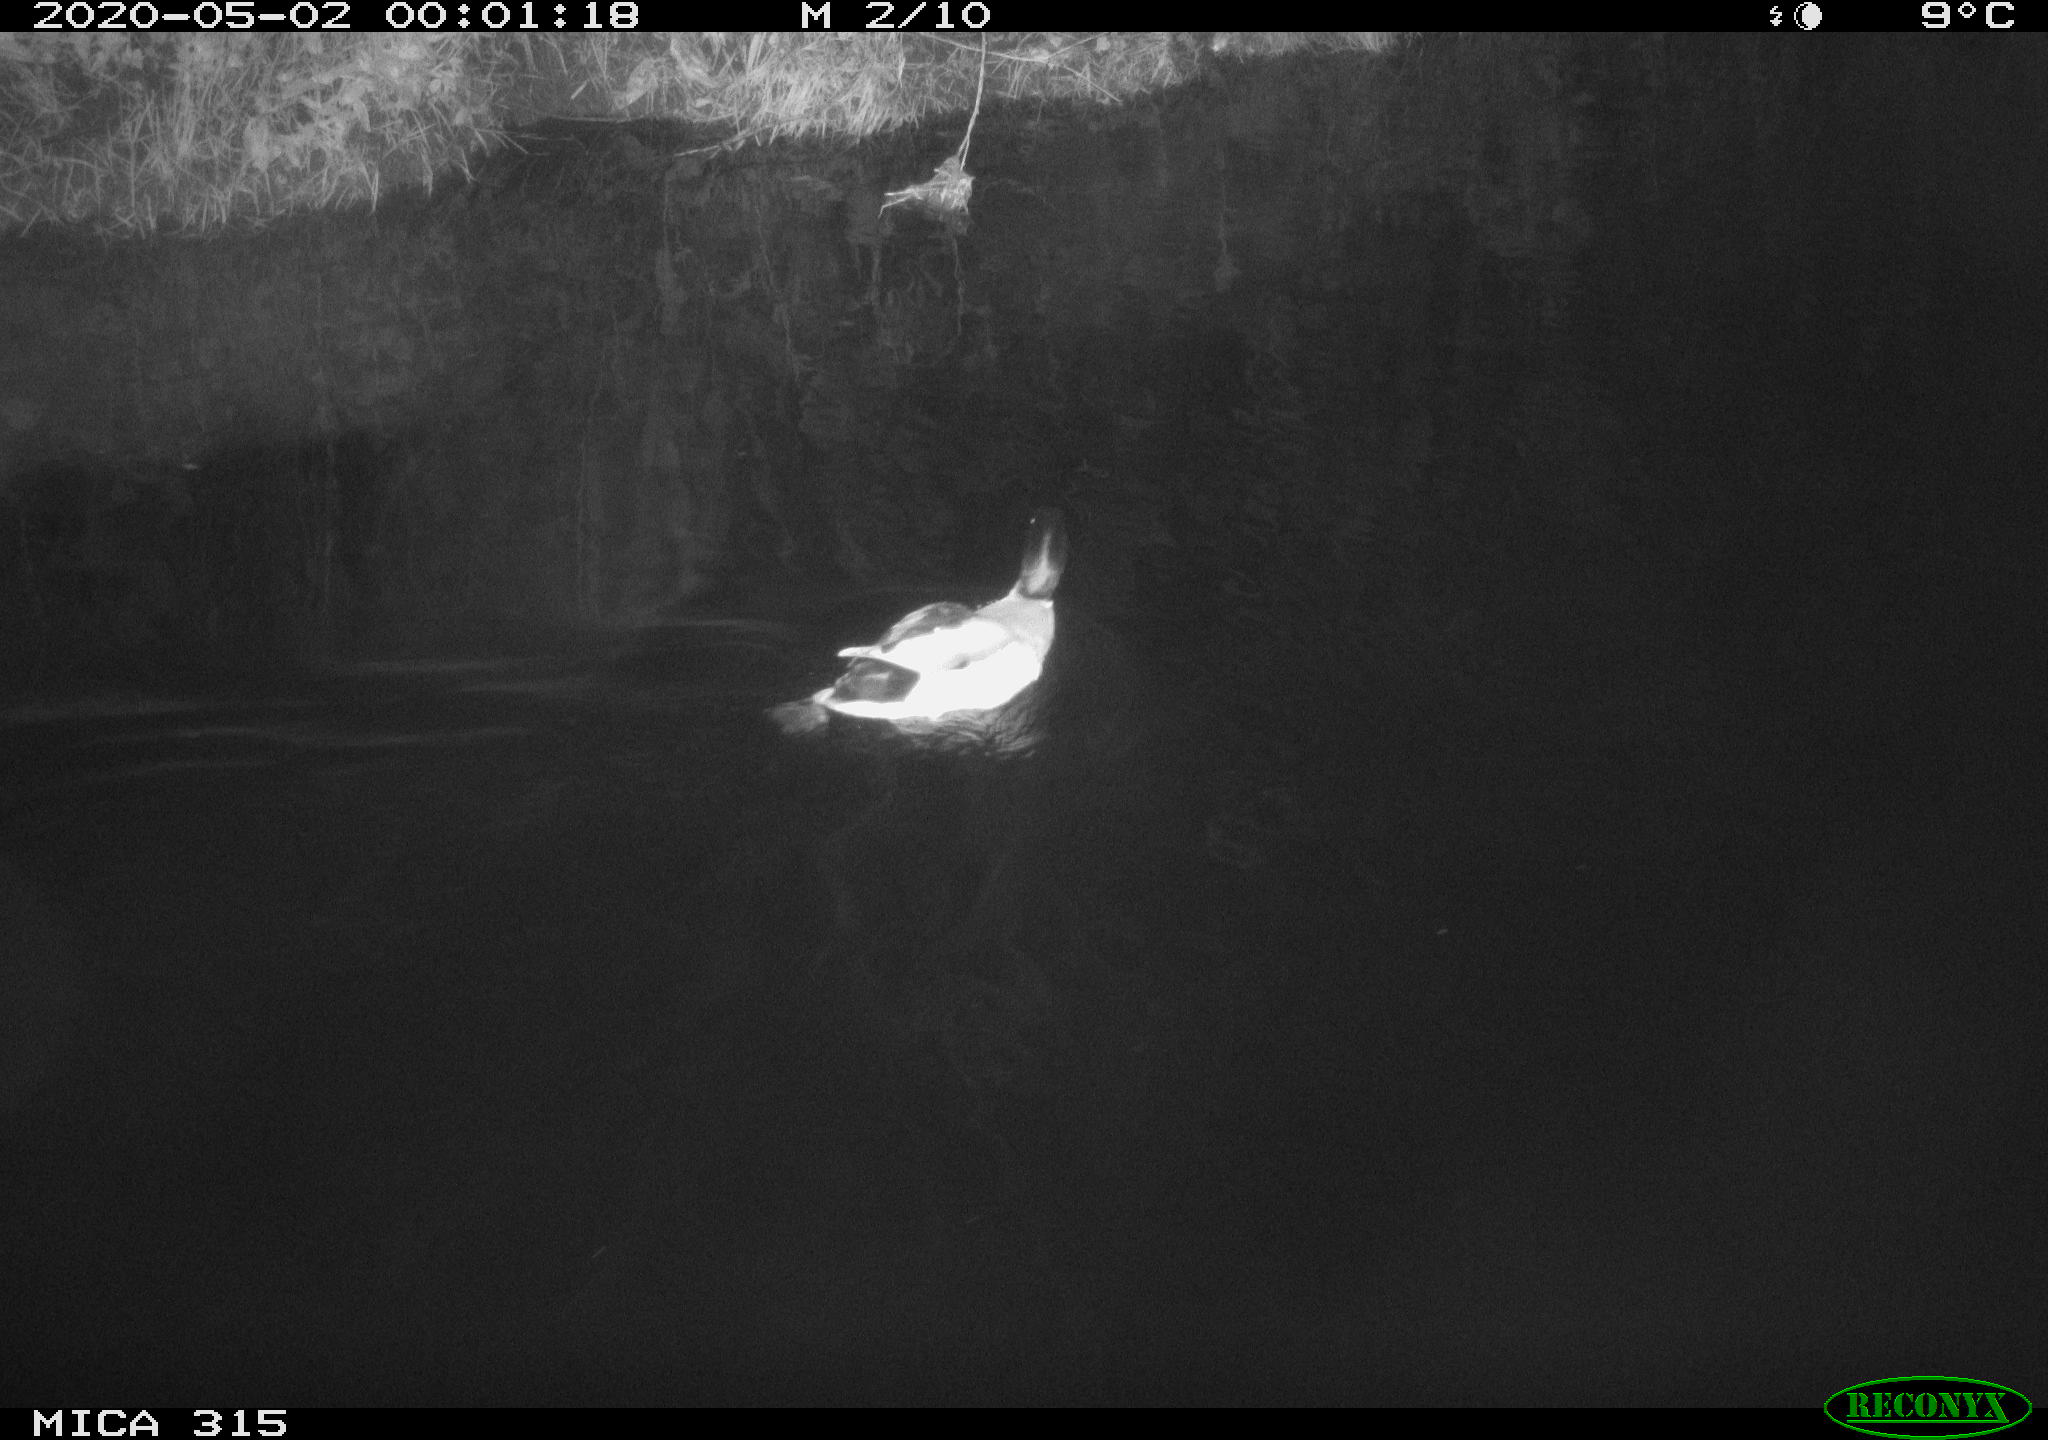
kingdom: Animalia
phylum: Chordata
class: Aves
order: Anseriformes
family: Anatidae
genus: Anas
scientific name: Anas platyrhynchos
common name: Mallard
